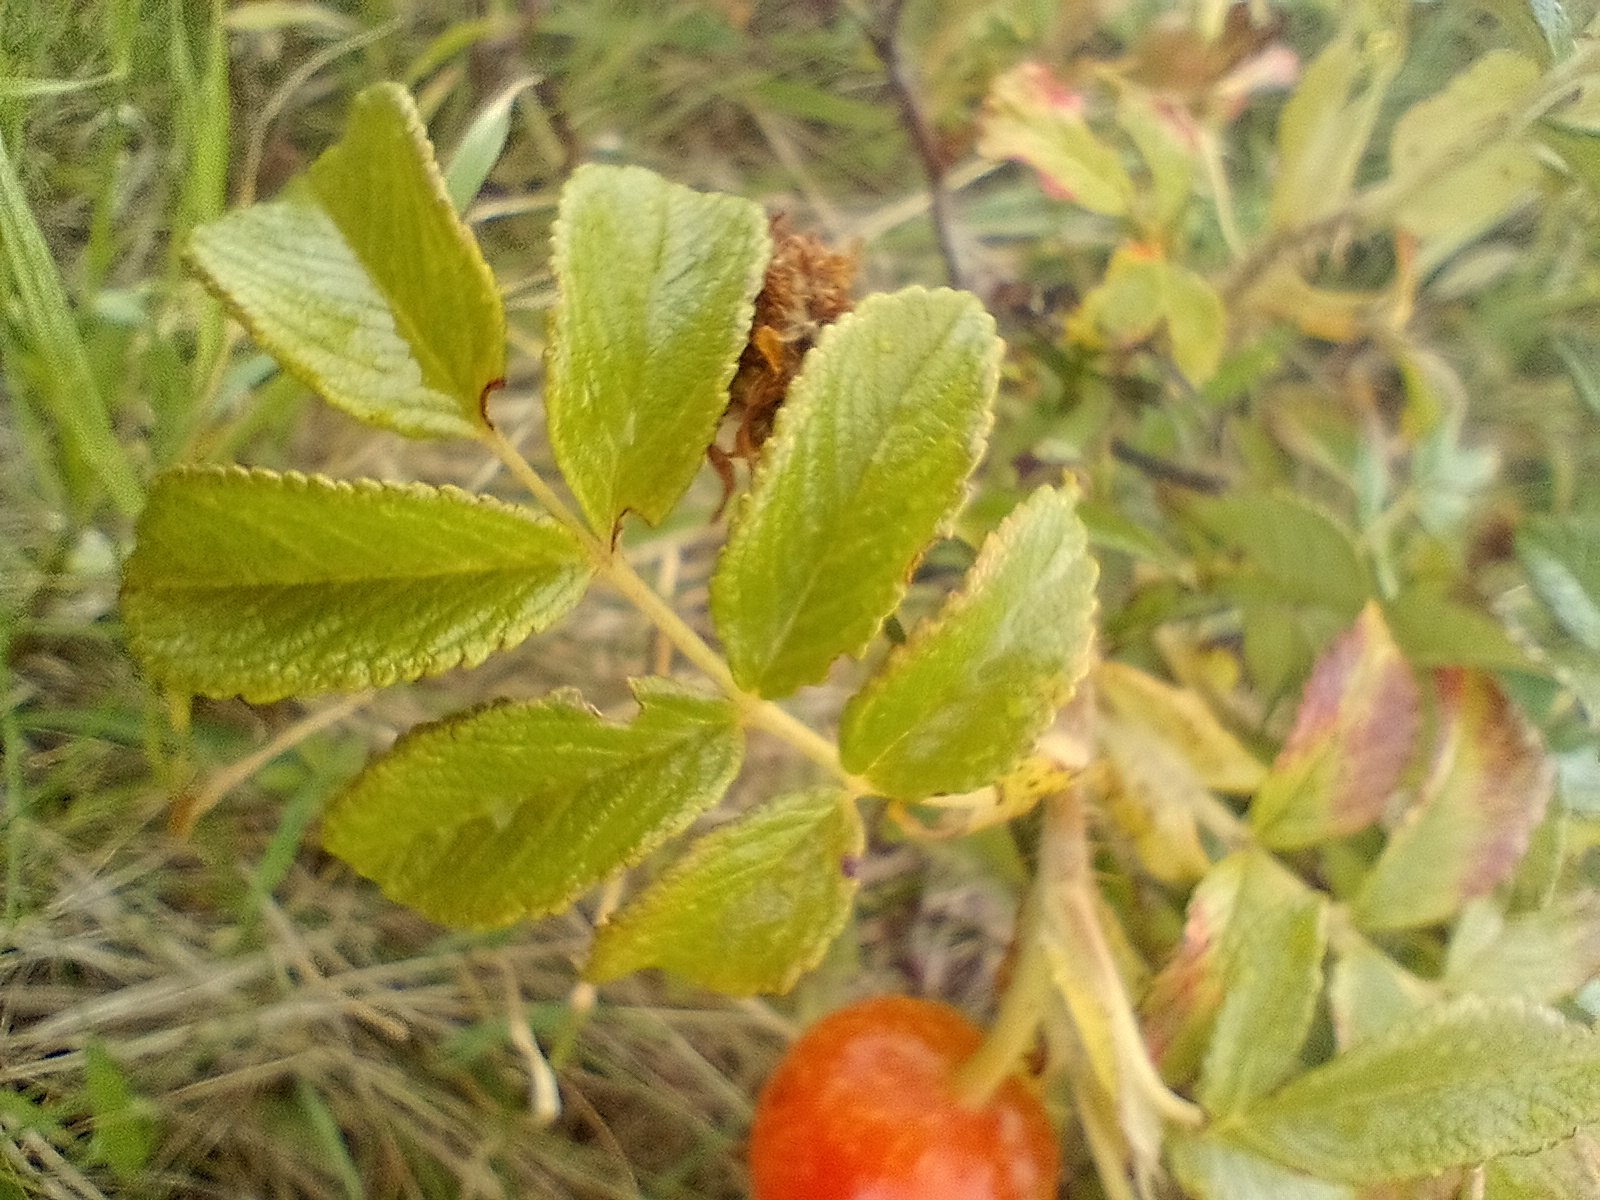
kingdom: Plantae
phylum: Tracheophyta
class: Magnoliopsida
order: Rosales
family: Rosaceae
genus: Rosa
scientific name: Rosa rugosa
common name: Rynket rose
